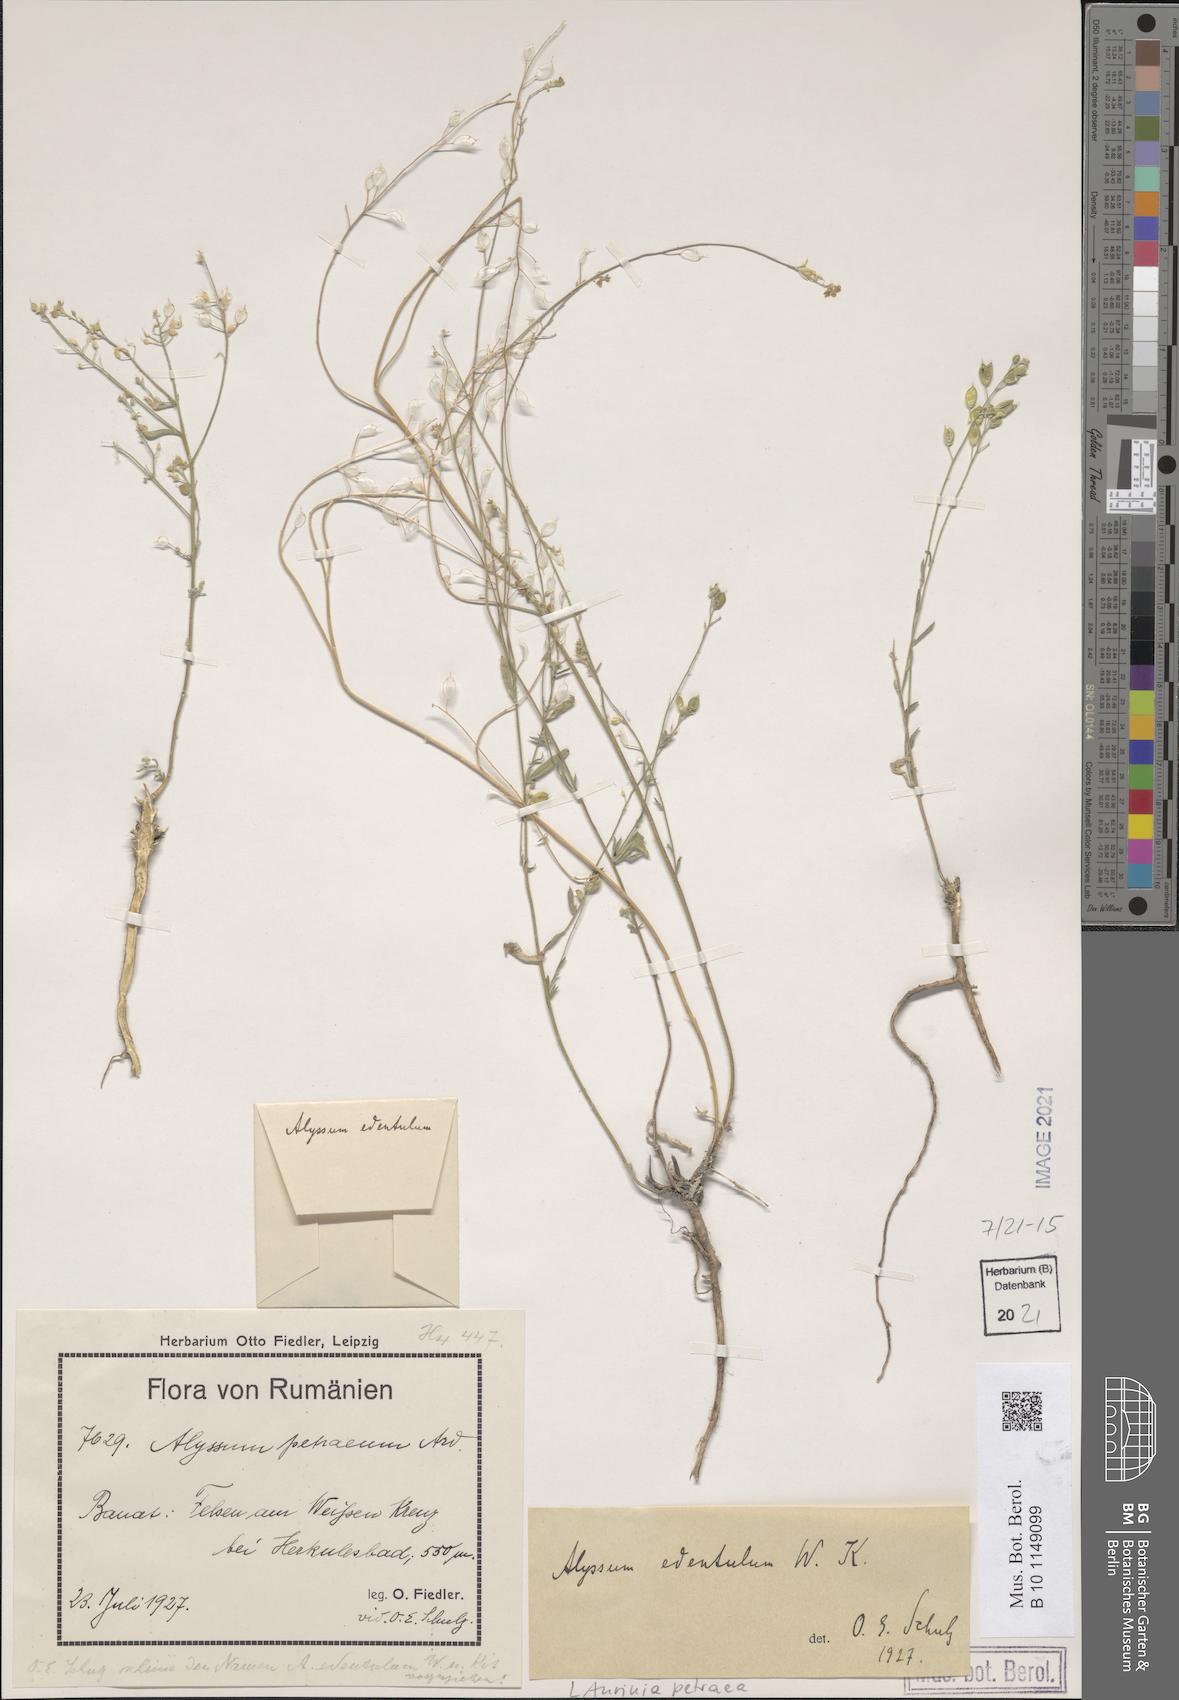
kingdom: Plantae
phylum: Tracheophyta
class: Magnoliopsida
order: Brassicales
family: Brassicaceae
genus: Aurinia
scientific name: Aurinia petraea
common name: Goldentuft
